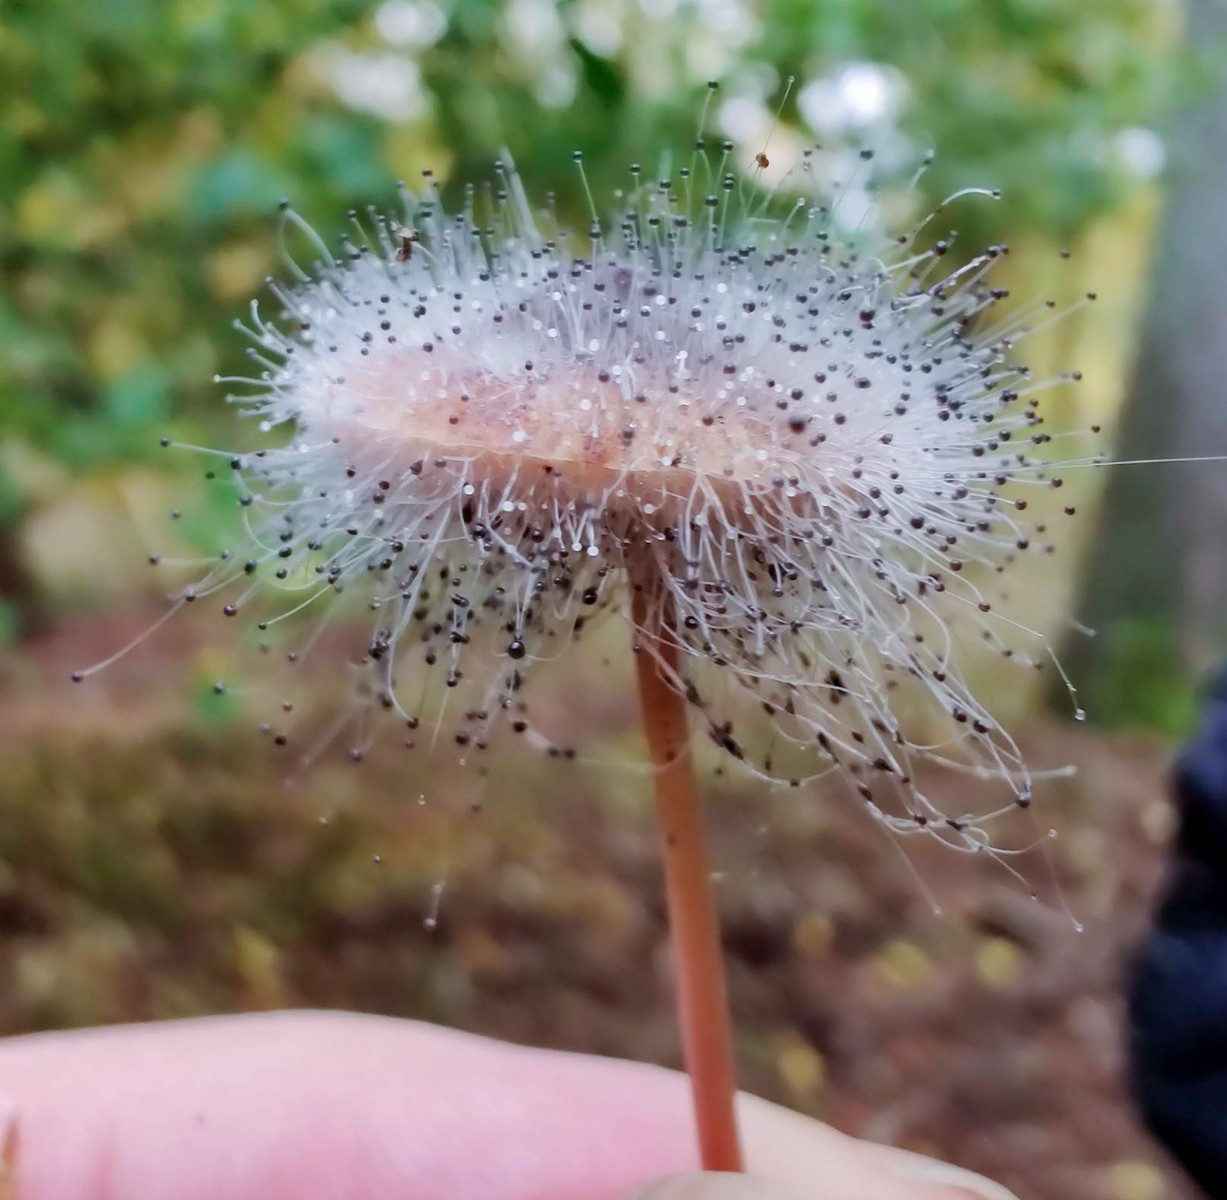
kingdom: Fungi
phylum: Mucoromycota
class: Mucoromycetes
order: Mucorales
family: Phycomycetaceae
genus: Spinellus
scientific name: Spinellus fusiger
